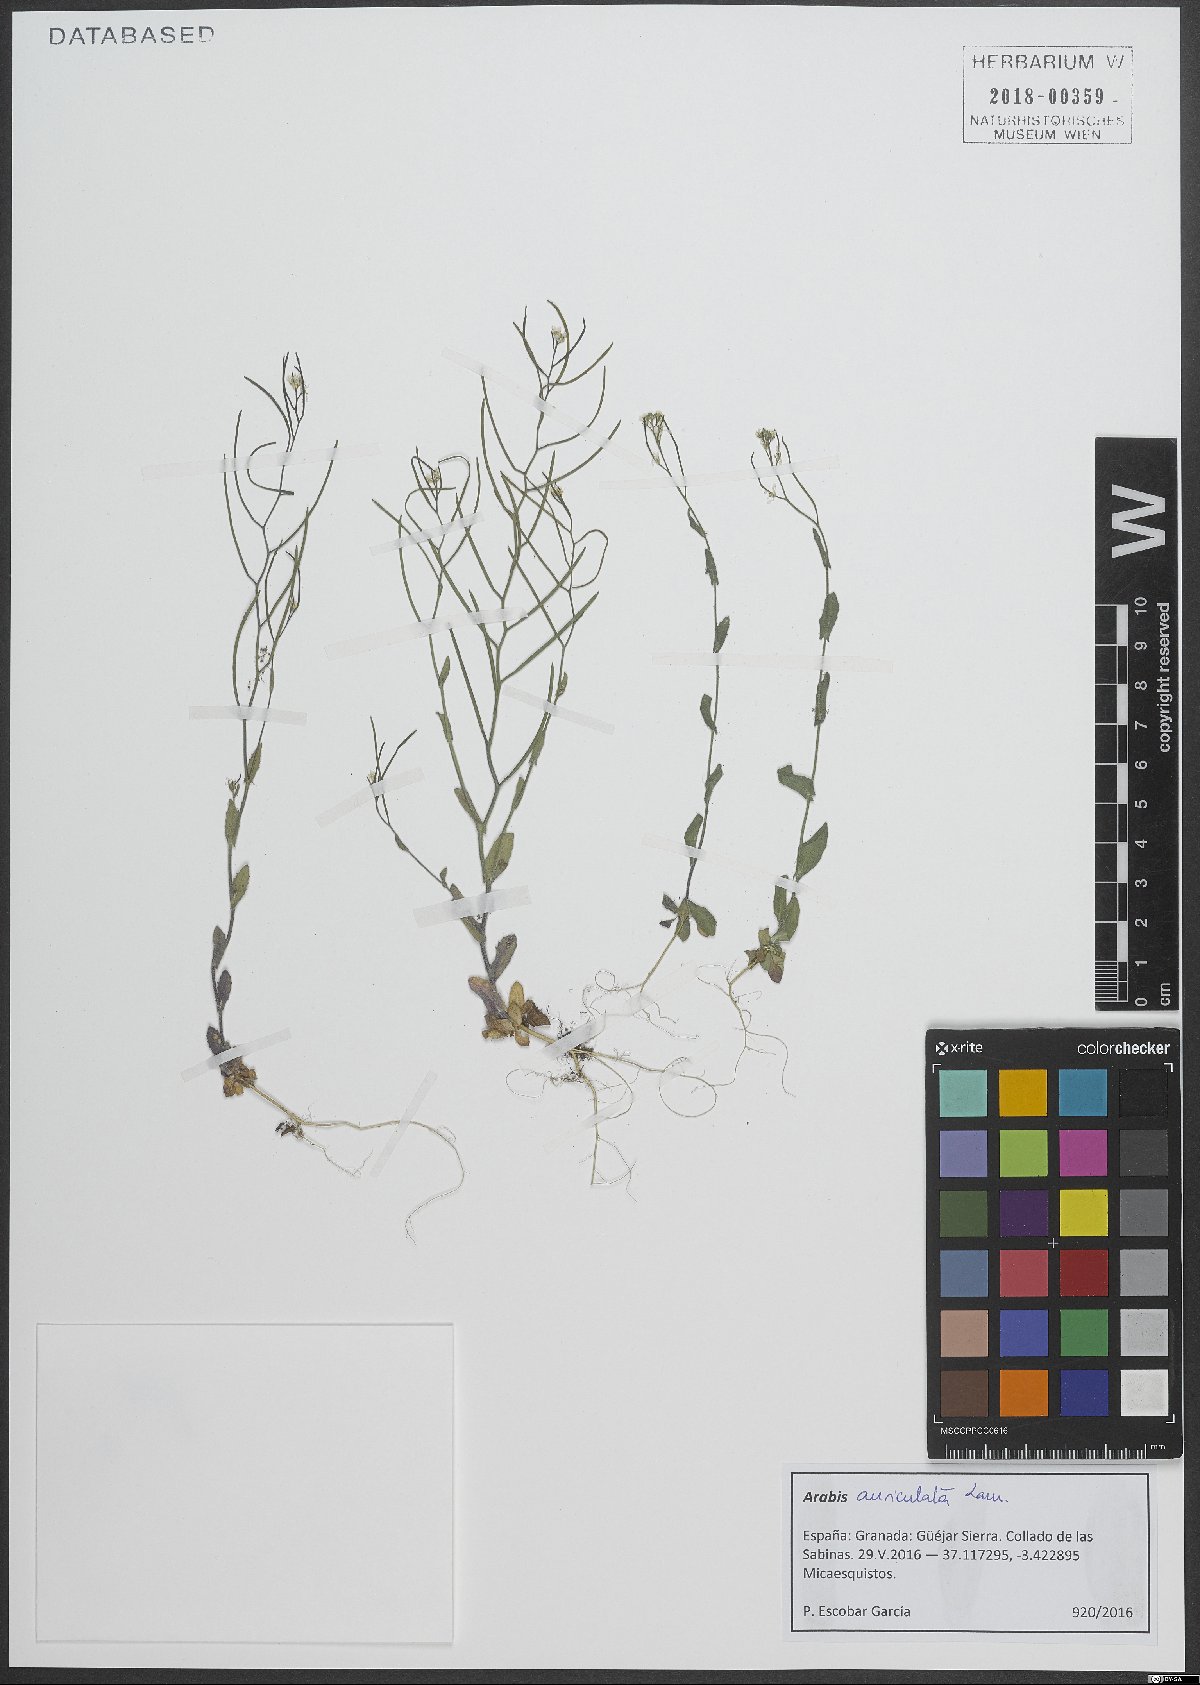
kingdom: Plantae
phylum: Tracheophyta
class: Magnoliopsida
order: Brassicales
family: Brassicaceae
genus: Arabis
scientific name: Arabis auriculata
